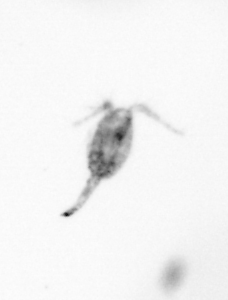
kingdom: Animalia
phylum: Arthropoda
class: Copepoda
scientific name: Copepoda
